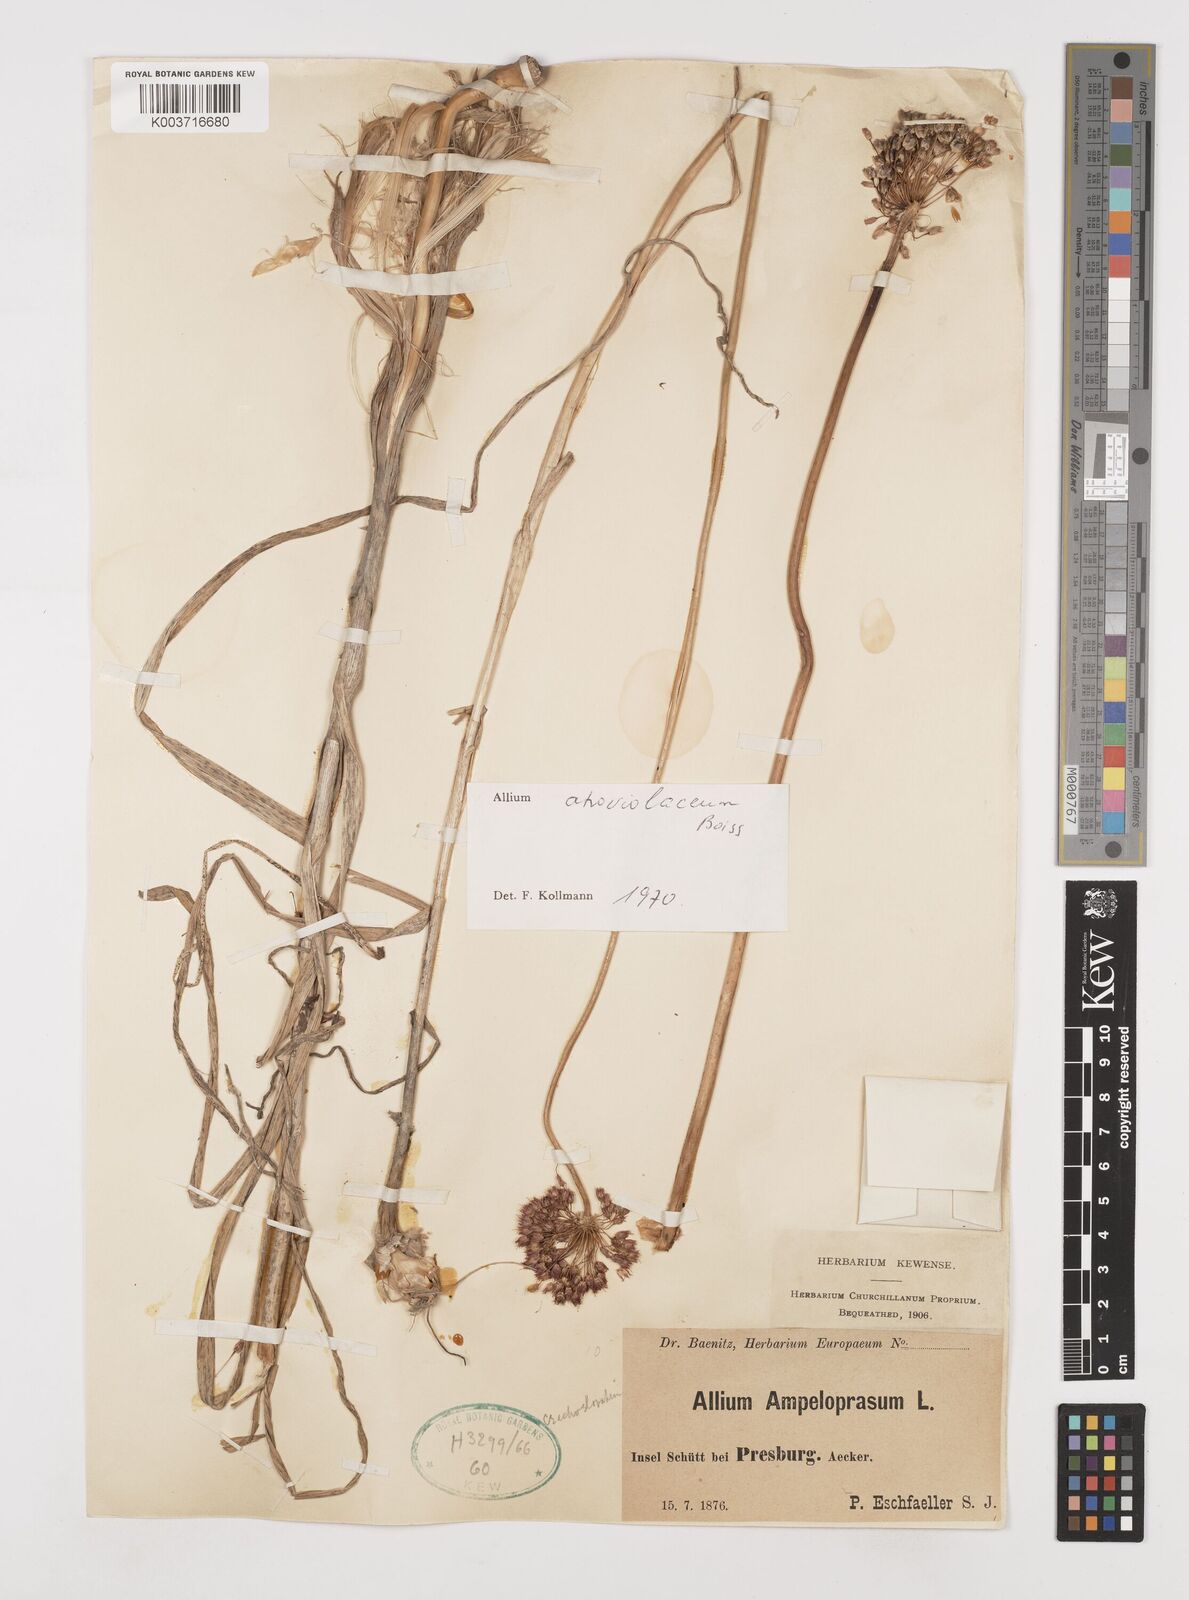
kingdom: Plantae
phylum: Tracheophyta
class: Liliopsida
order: Asparagales
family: Amaryllidaceae
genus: Allium
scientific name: Allium sphaerocephalon
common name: Round-headed leek
